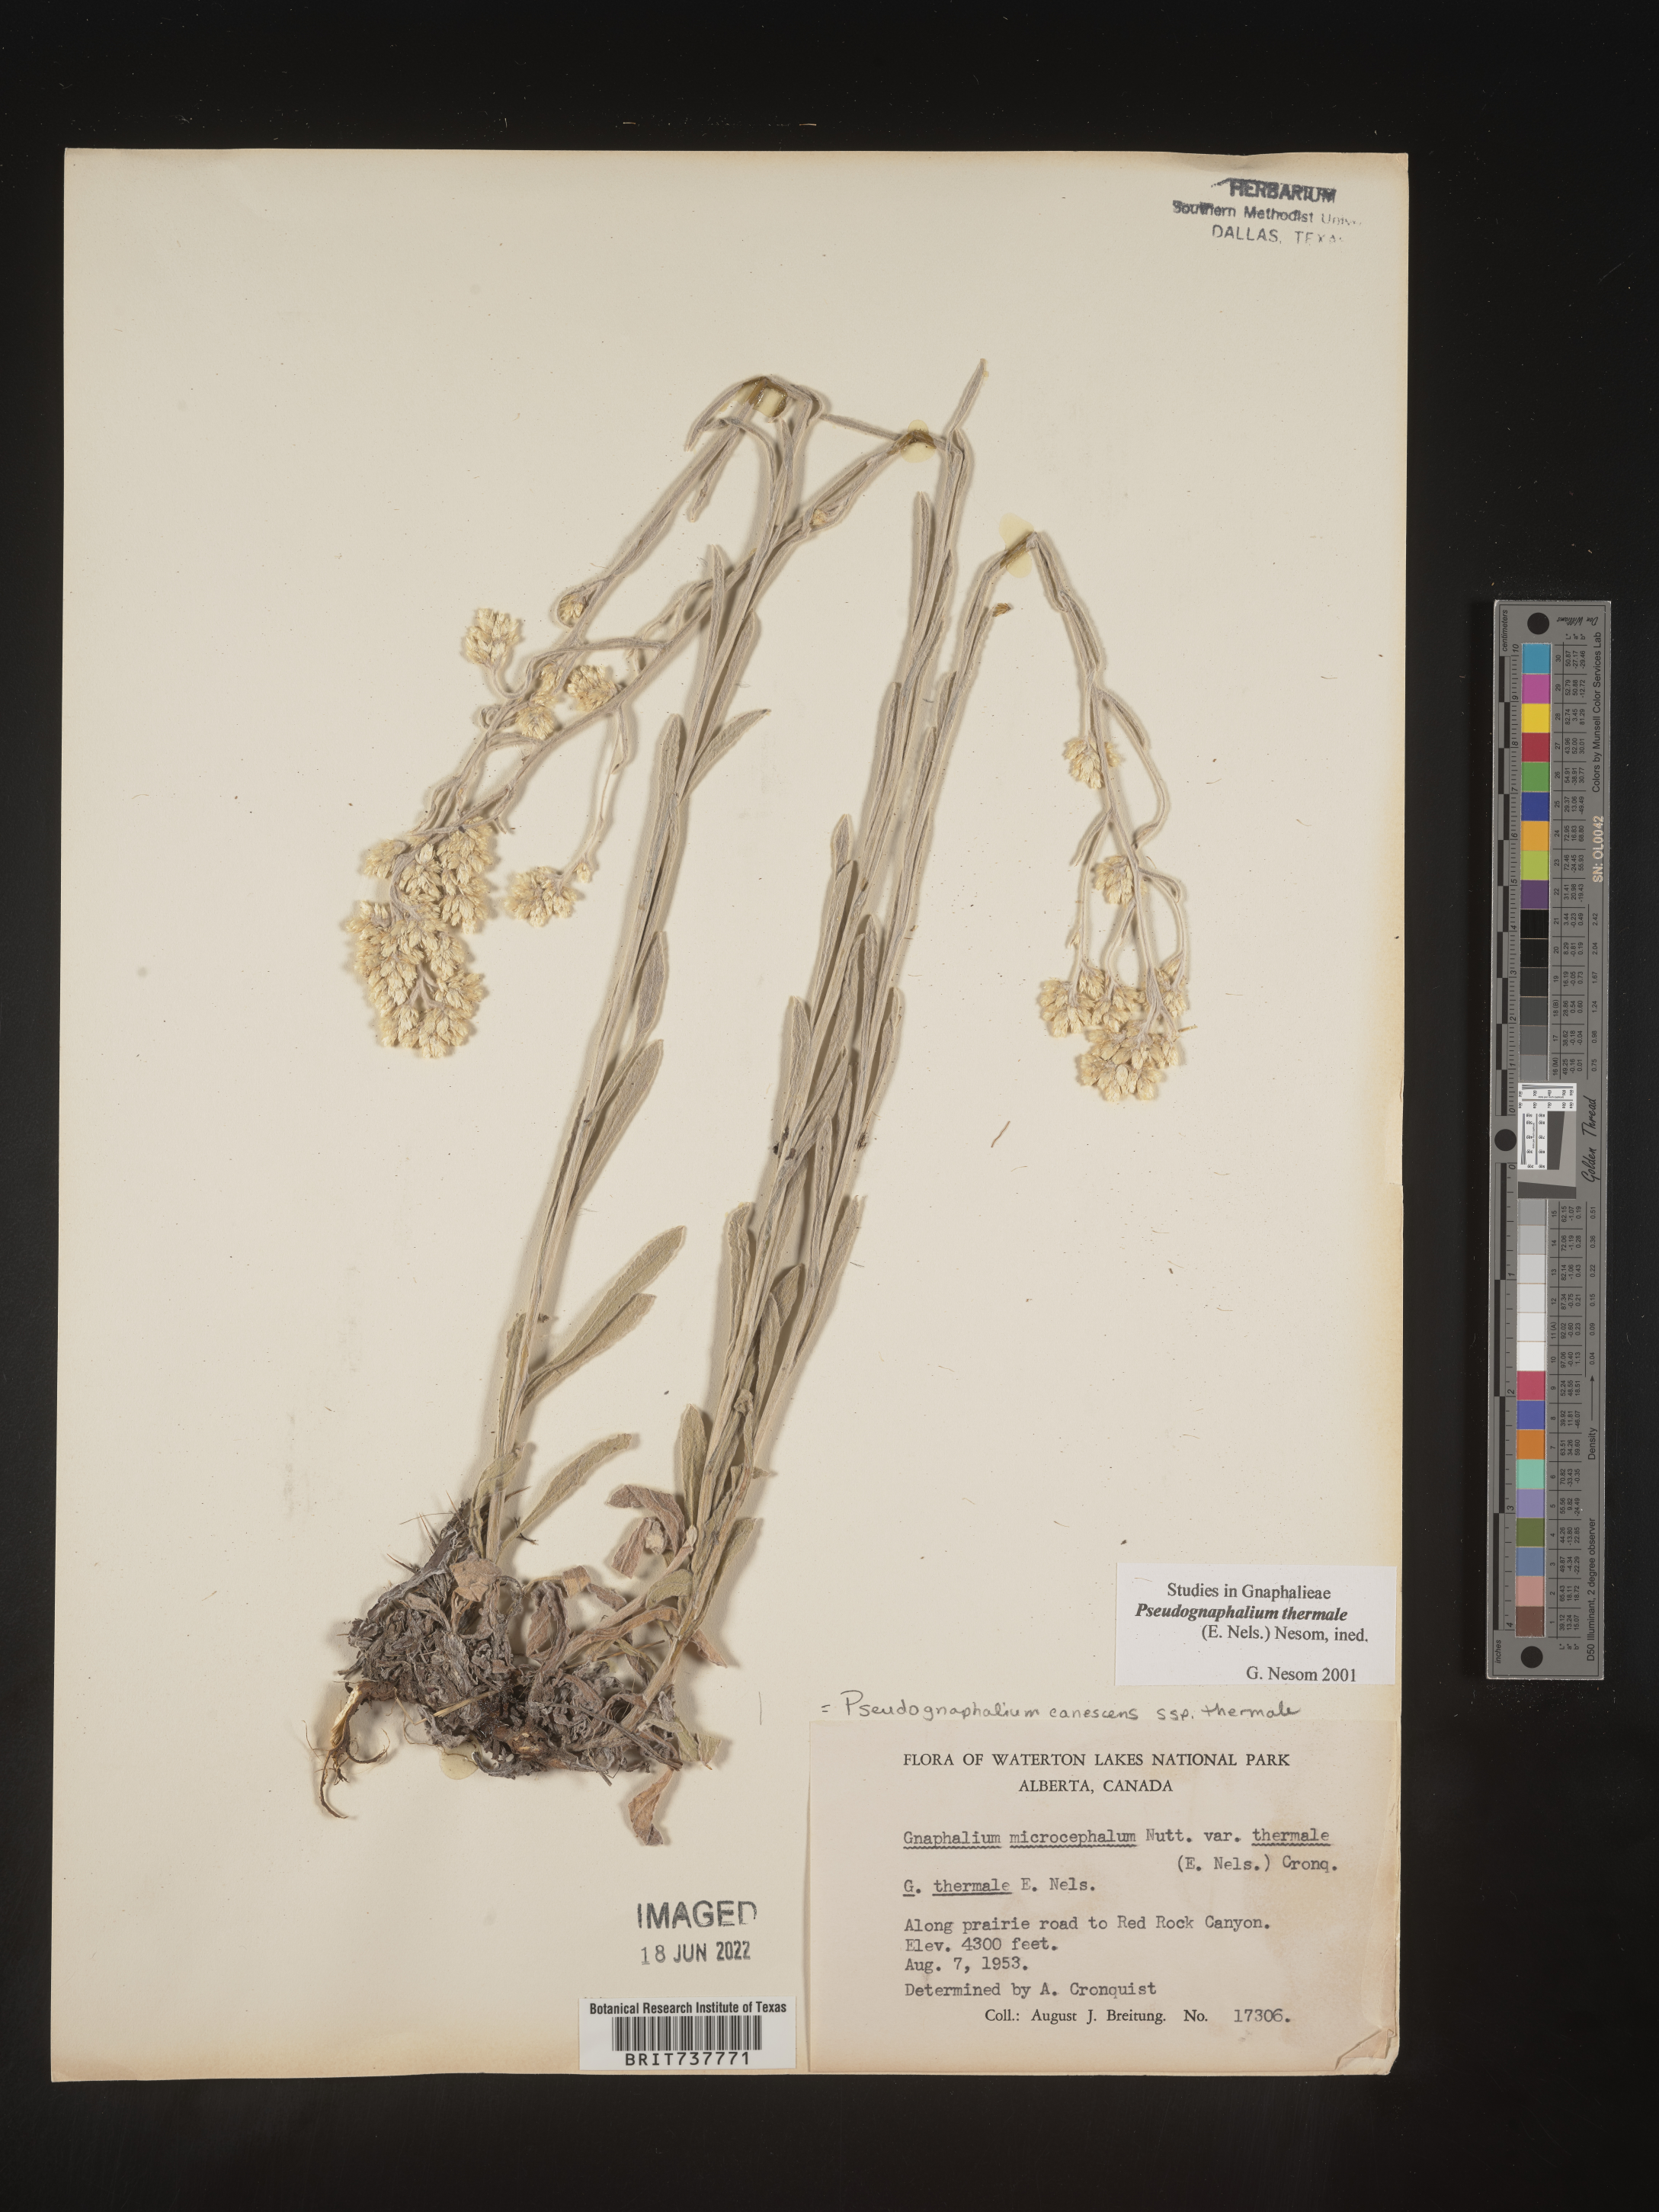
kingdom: Plantae
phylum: Tracheophyta
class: Magnoliopsida
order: Asterales
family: Asteraceae
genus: Pseudognaphalium
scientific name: Pseudognaphalium thermale
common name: Northwestern rabbit-tobacco
